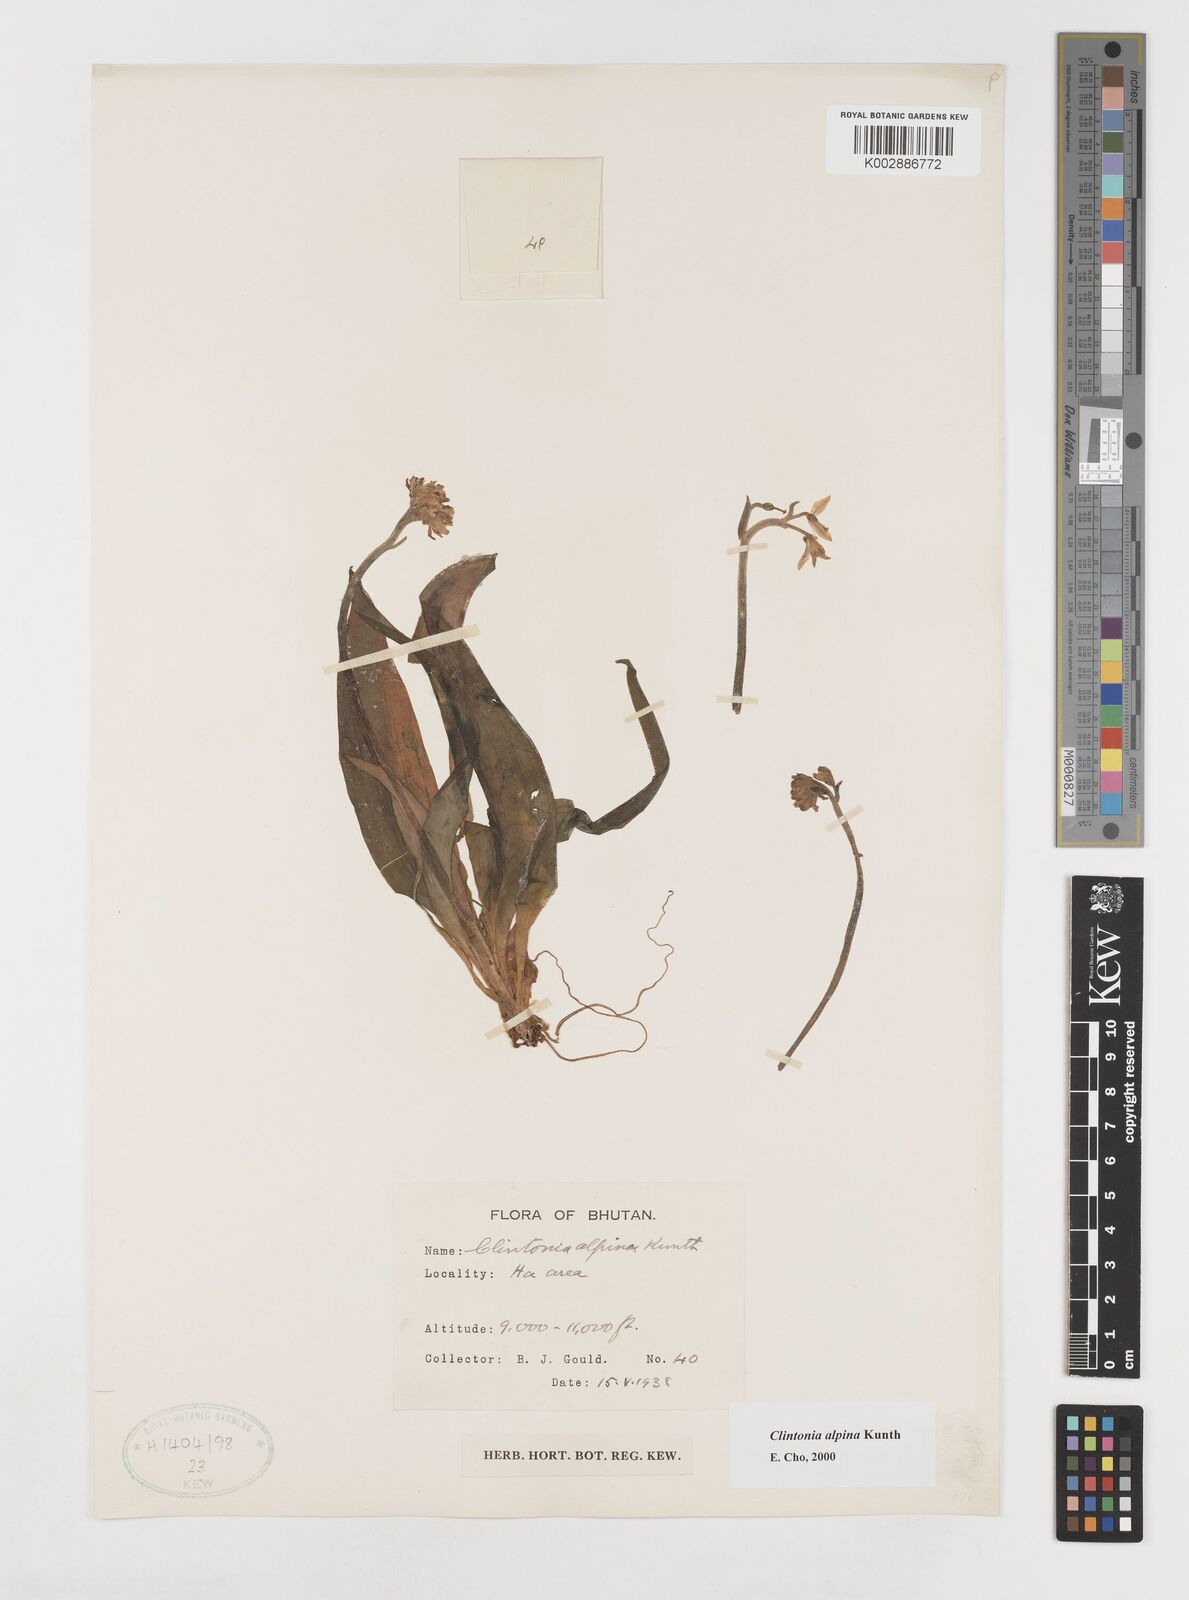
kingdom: Plantae
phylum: Tracheophyta
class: Liliopsida
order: Liliales
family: Liliaceae
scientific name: Liliaceae
